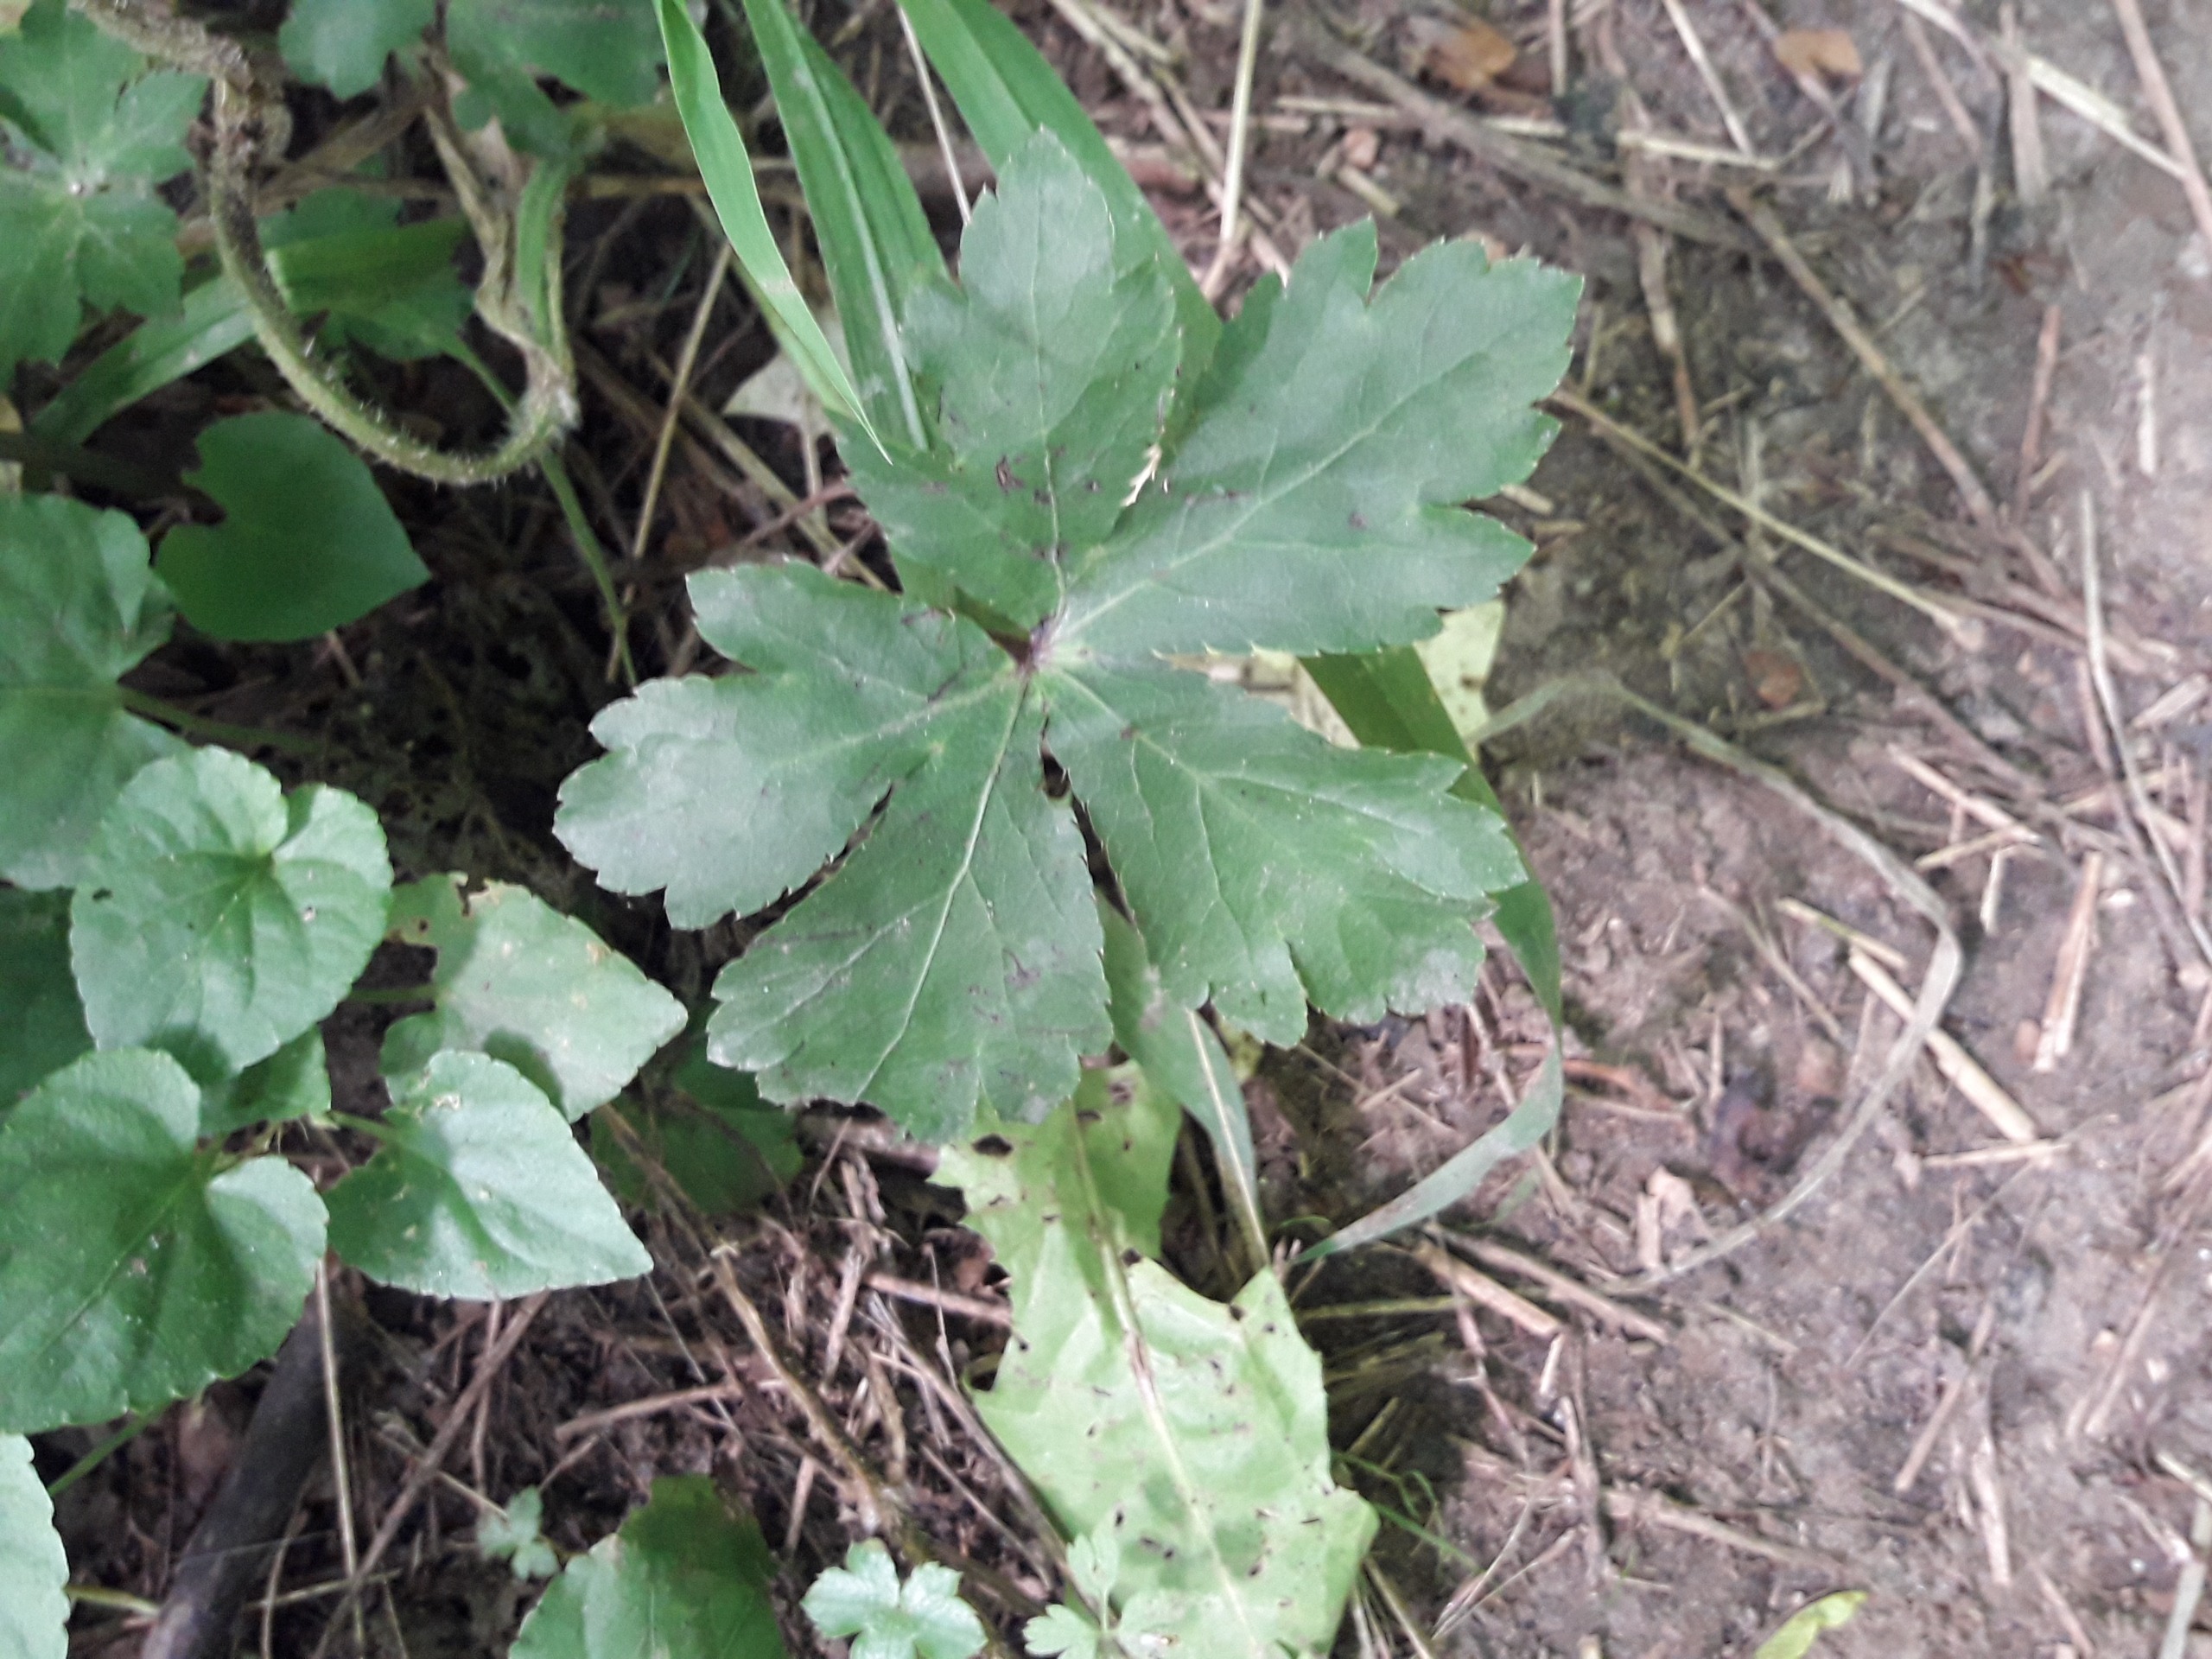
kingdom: Plantae
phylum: Tracheophyta
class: Magnoliopsida
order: Apiales
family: Apiaceae
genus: Sanicula
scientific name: Sanicula europaea
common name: Sanikel
